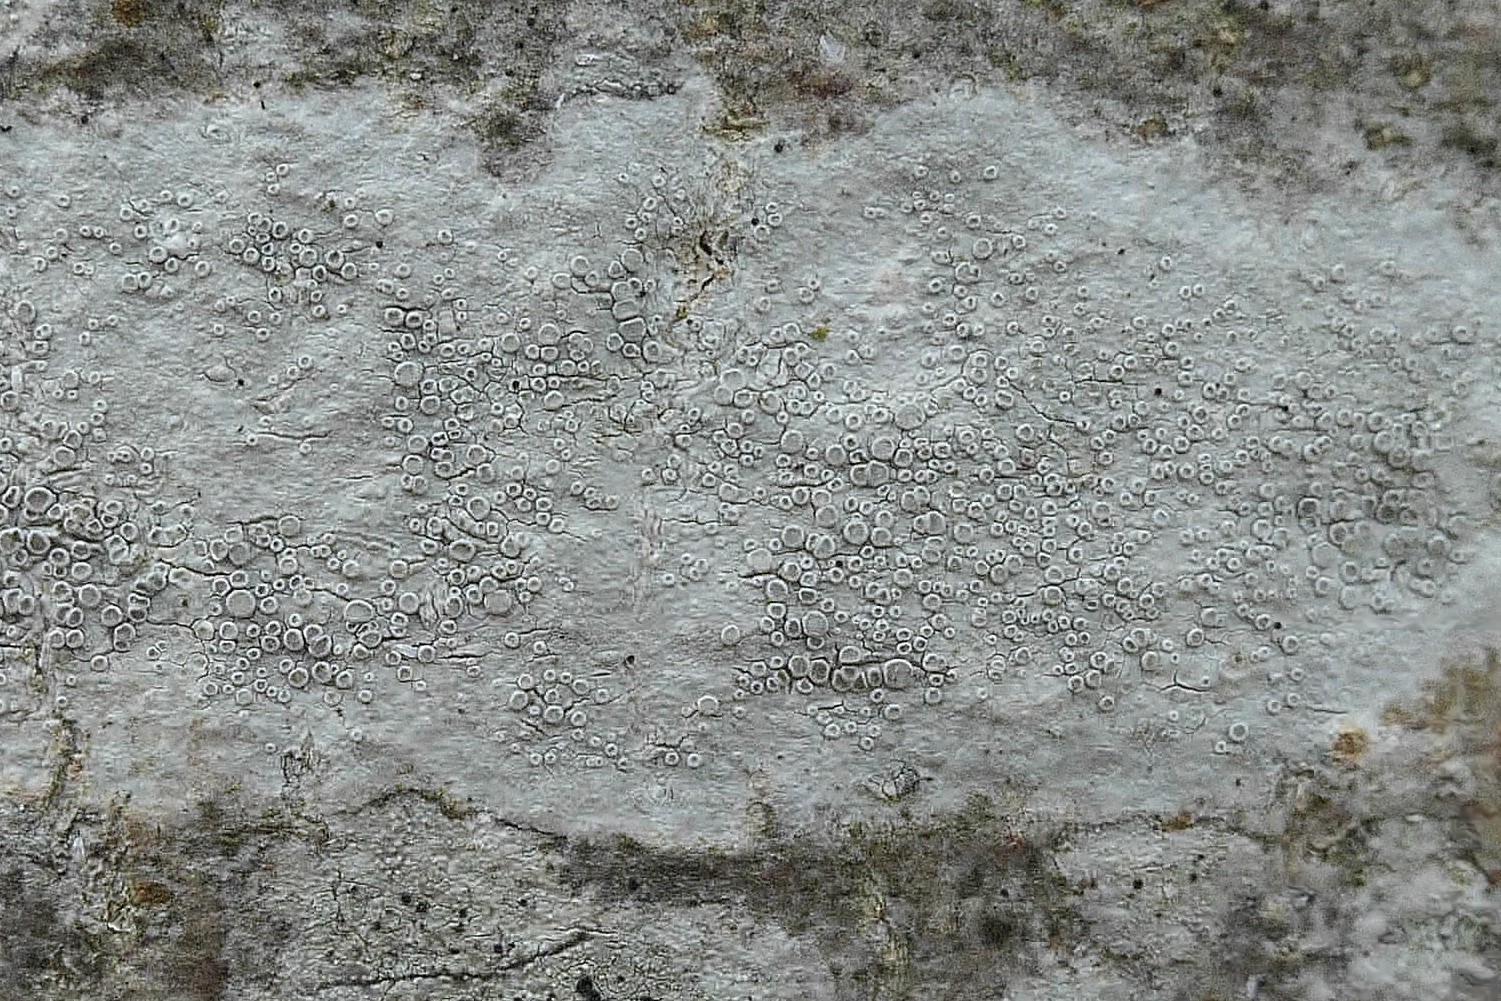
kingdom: Fungi
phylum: Ascomycota
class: Lecanoromycetes
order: Lecanorales
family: Lecanoraceae
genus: Glaucomaria
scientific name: Glaucomaria carpinea
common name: hviddugget kantskivelav
